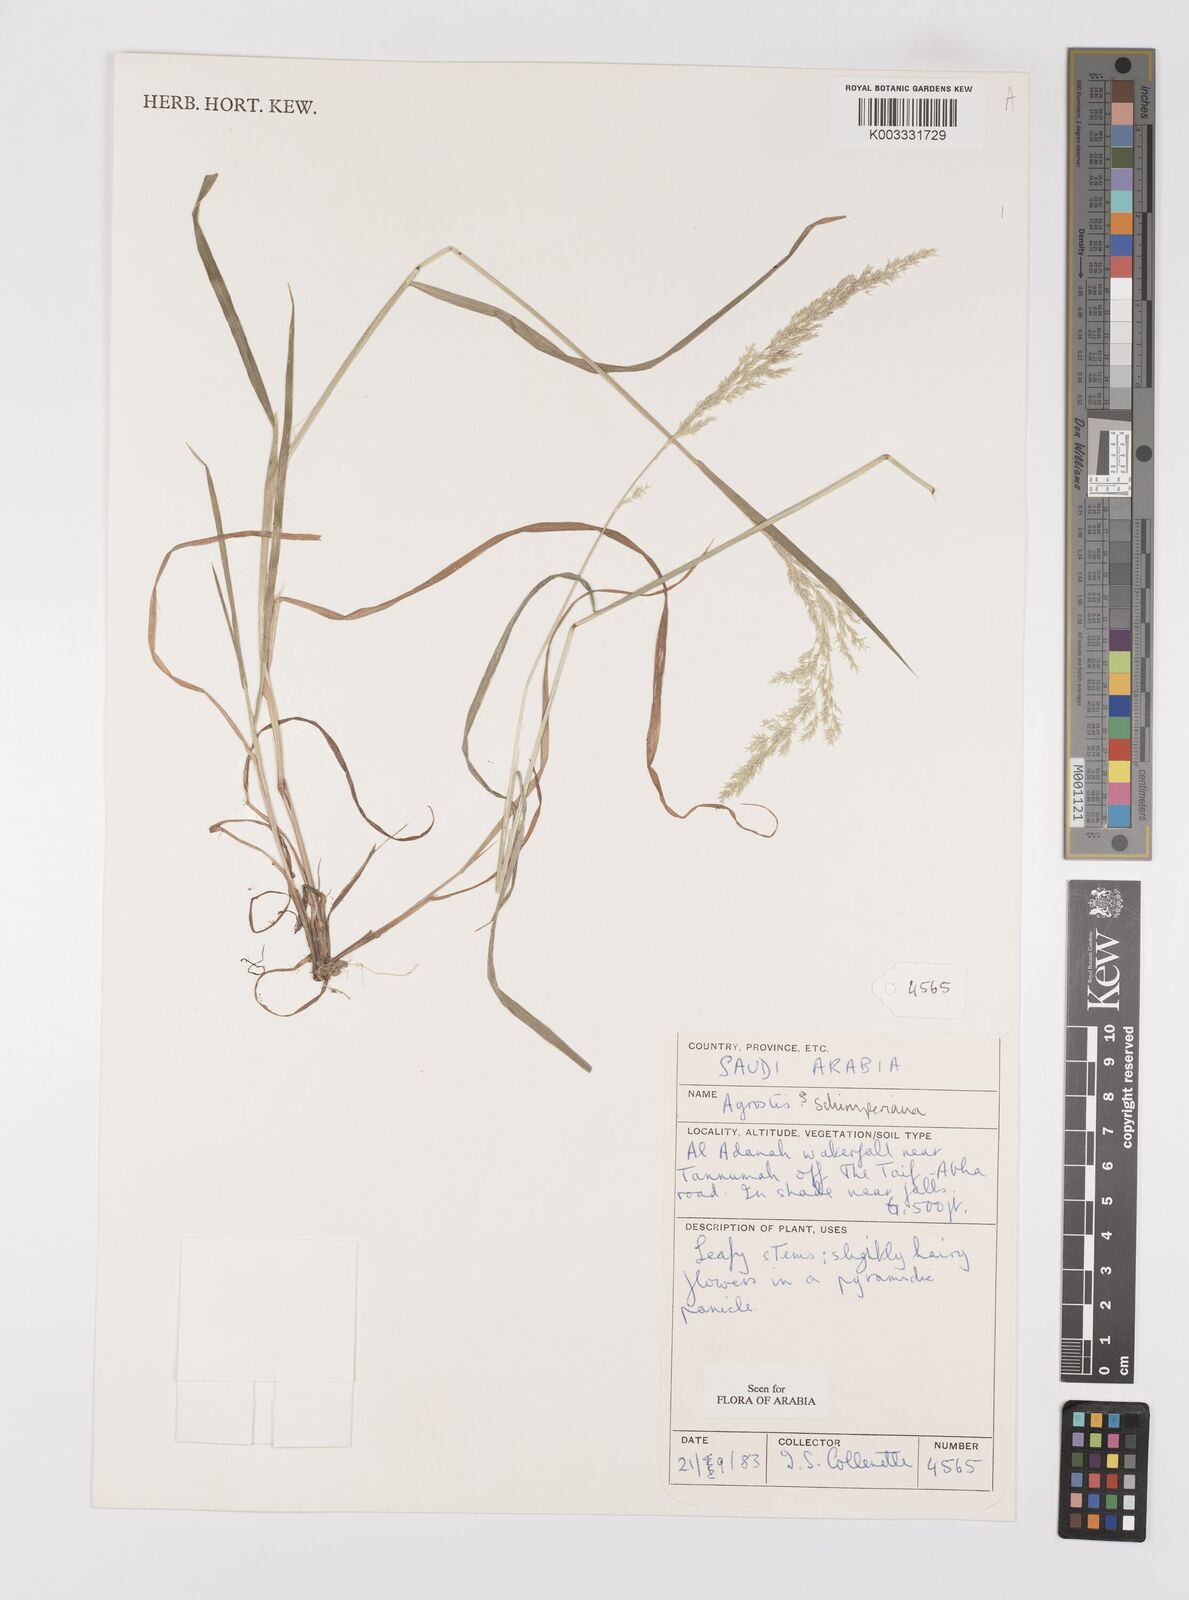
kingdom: Plantae
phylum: Tracheophyta
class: Liliopsida
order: Poales
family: Poaceae
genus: Polypogon
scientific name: Polypogon schimperianus
